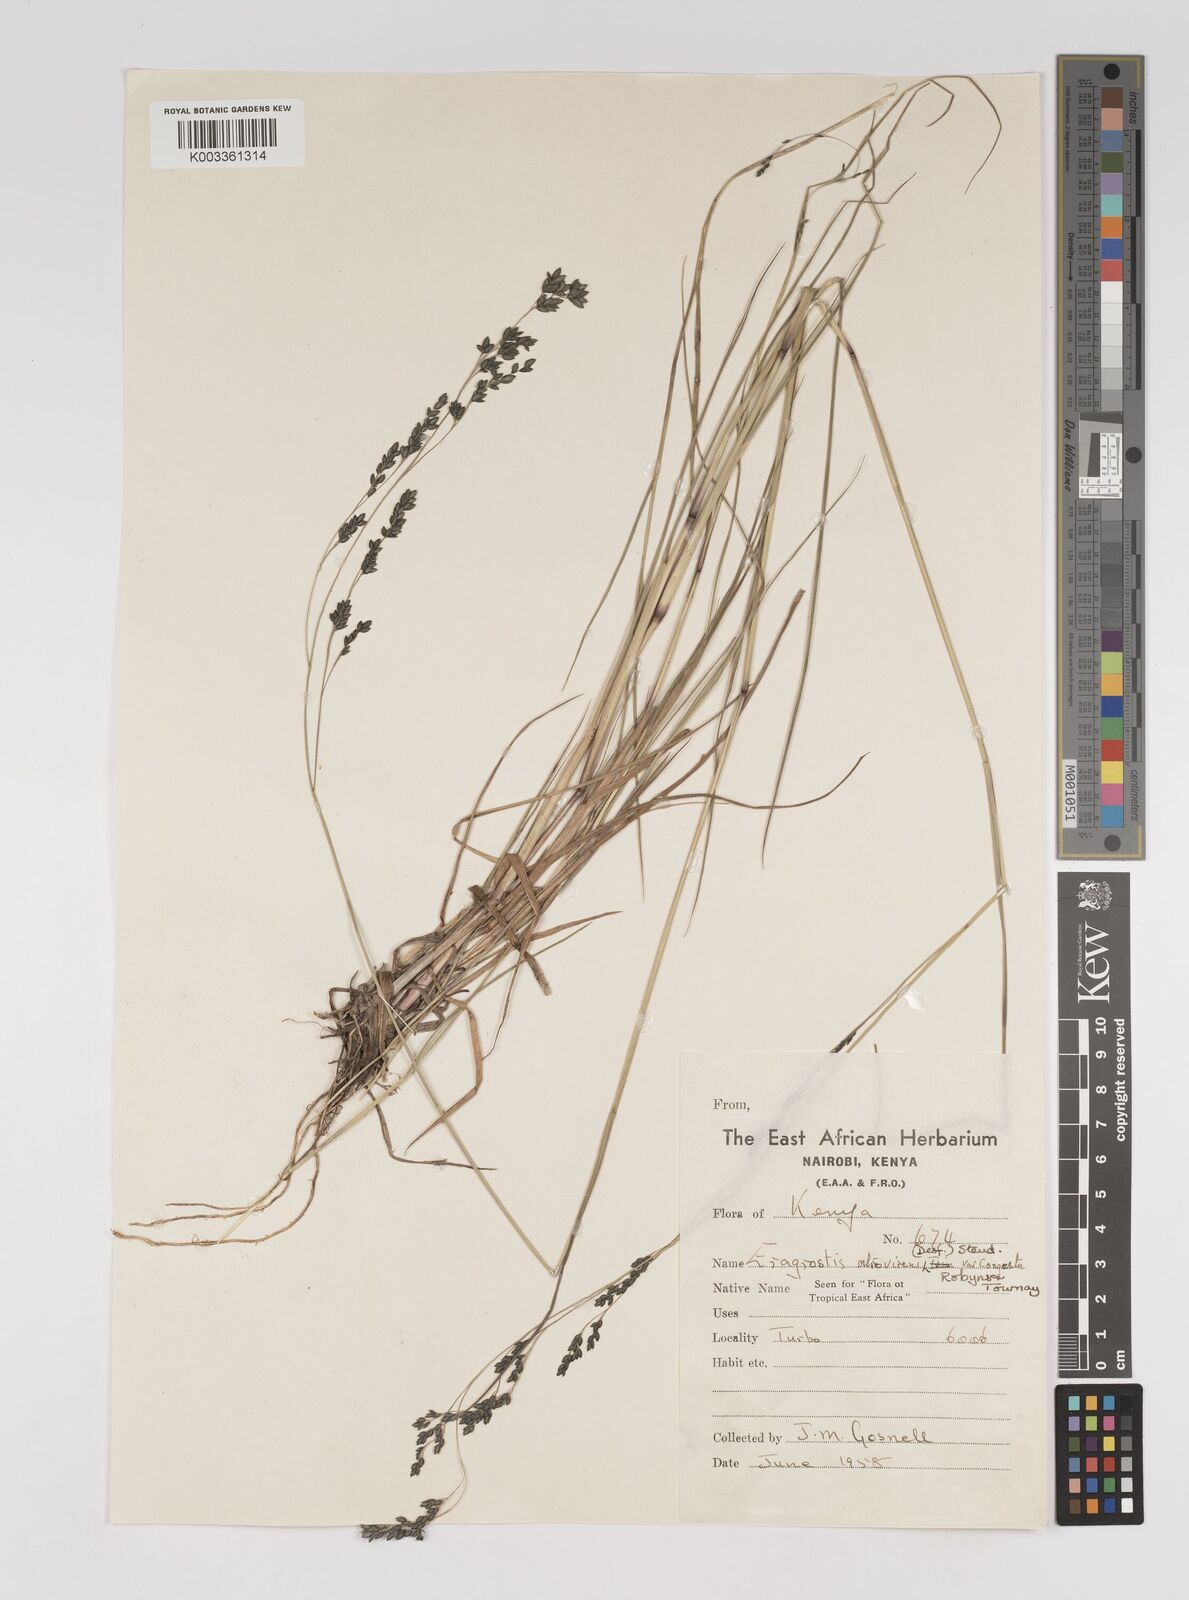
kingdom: Plantae
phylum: Tracheophyta
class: Liliopsida
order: Poales
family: Poaceae
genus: Eragrostis
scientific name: Eragrostis botryodes
